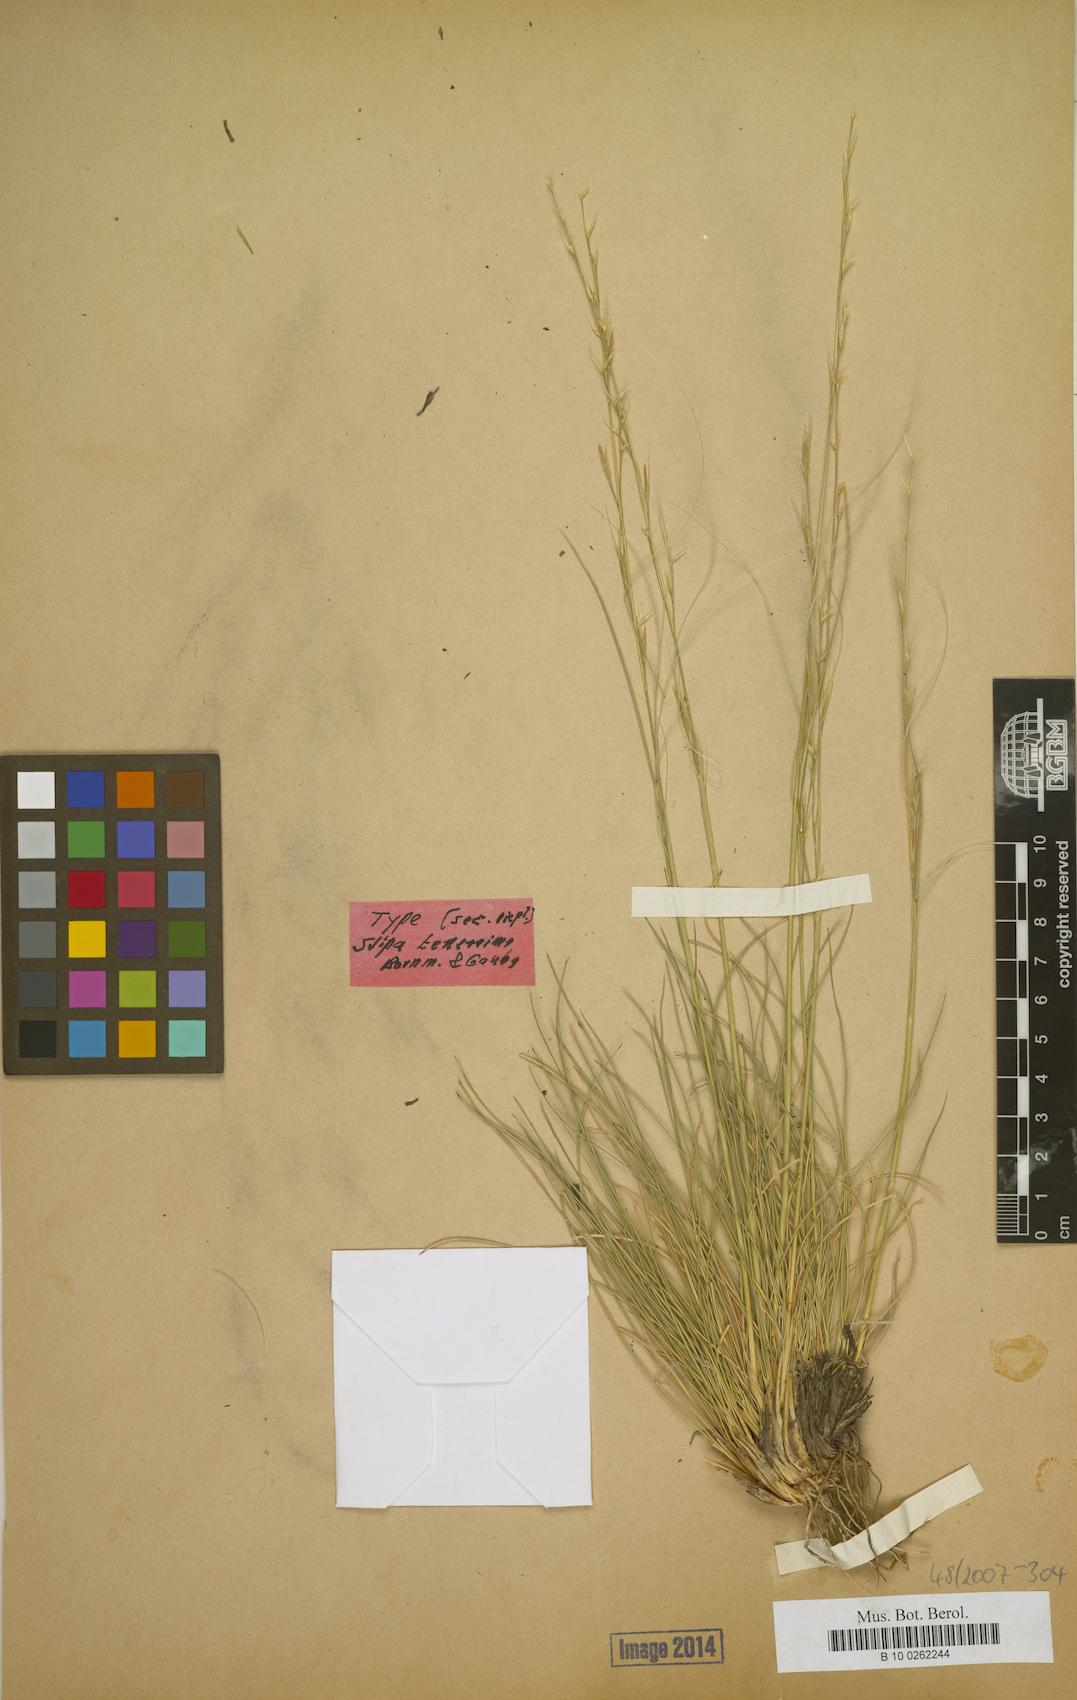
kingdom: Plantae
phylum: Tracheophyta
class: Liliopsida
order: Poales
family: Poaceae
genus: Stipa
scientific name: Stipa tenerrima
